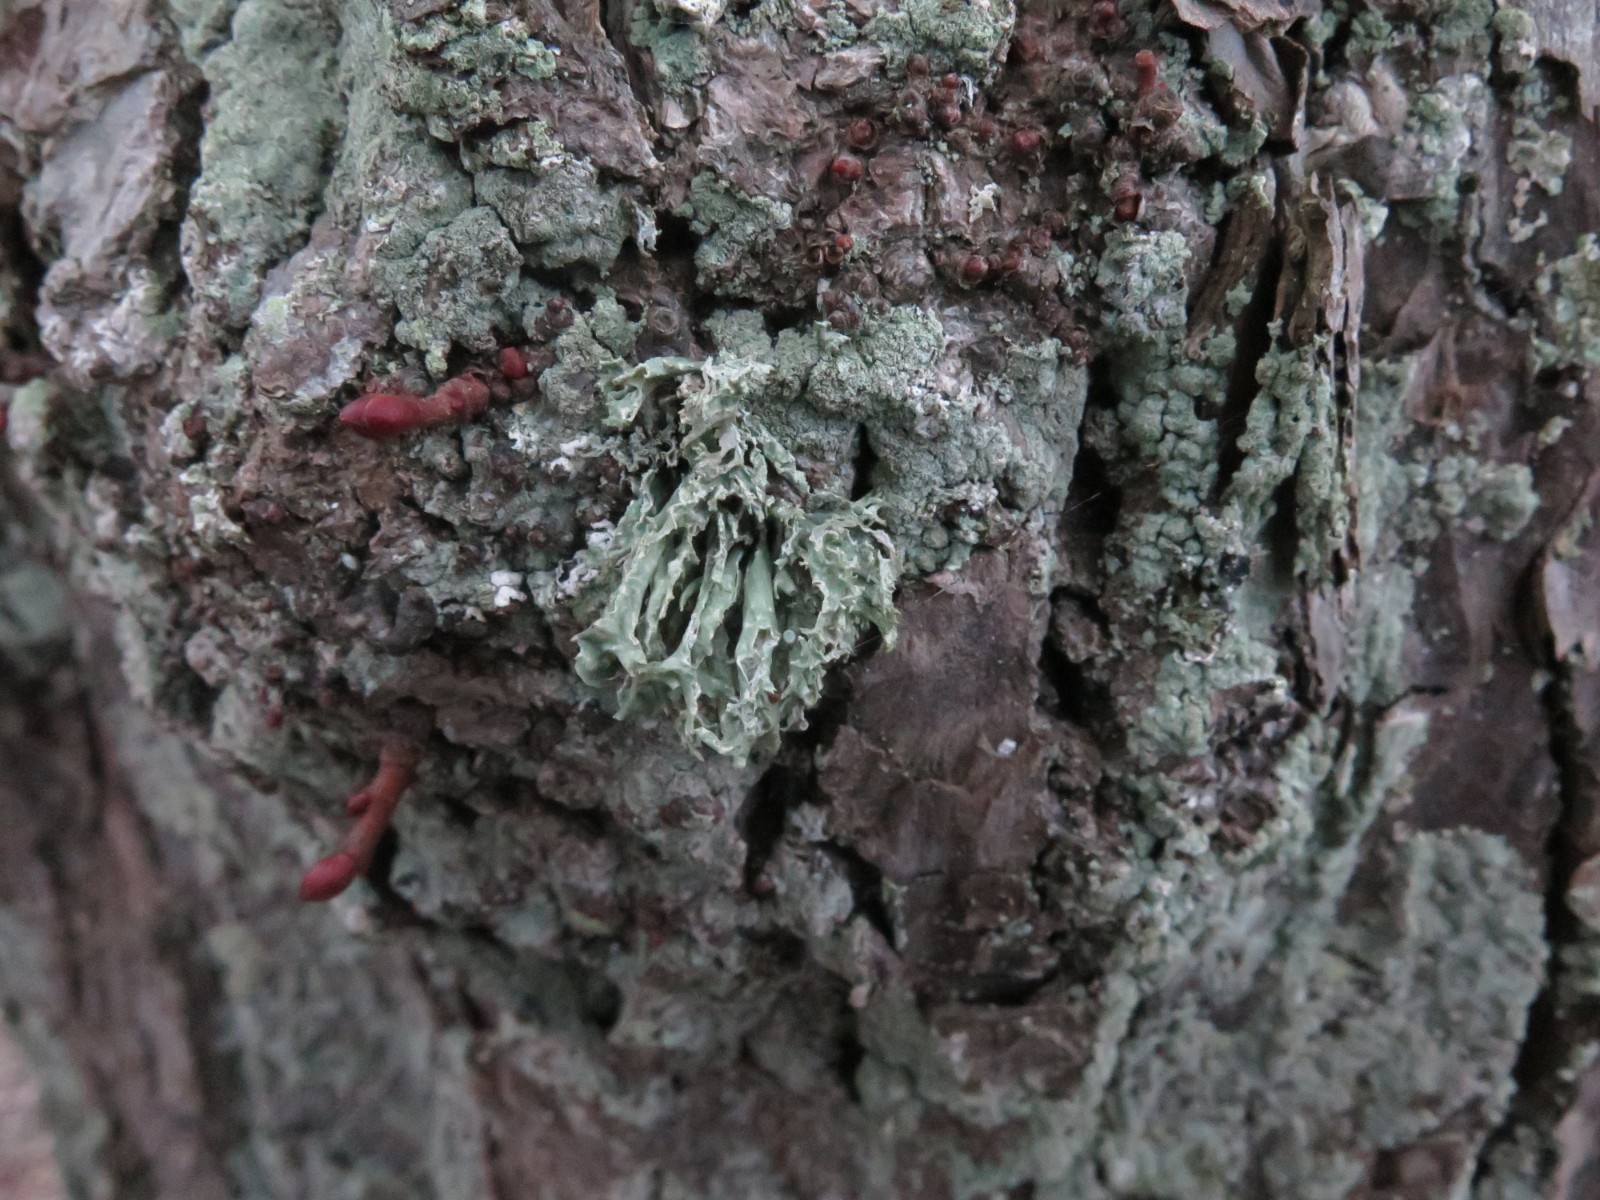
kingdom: Fungi
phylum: Ascomycota
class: Lecanoromycetes
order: Lecanorales
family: Parmeliaceae
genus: Evernia
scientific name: Evernia prunastri
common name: almindelig slåenlav
